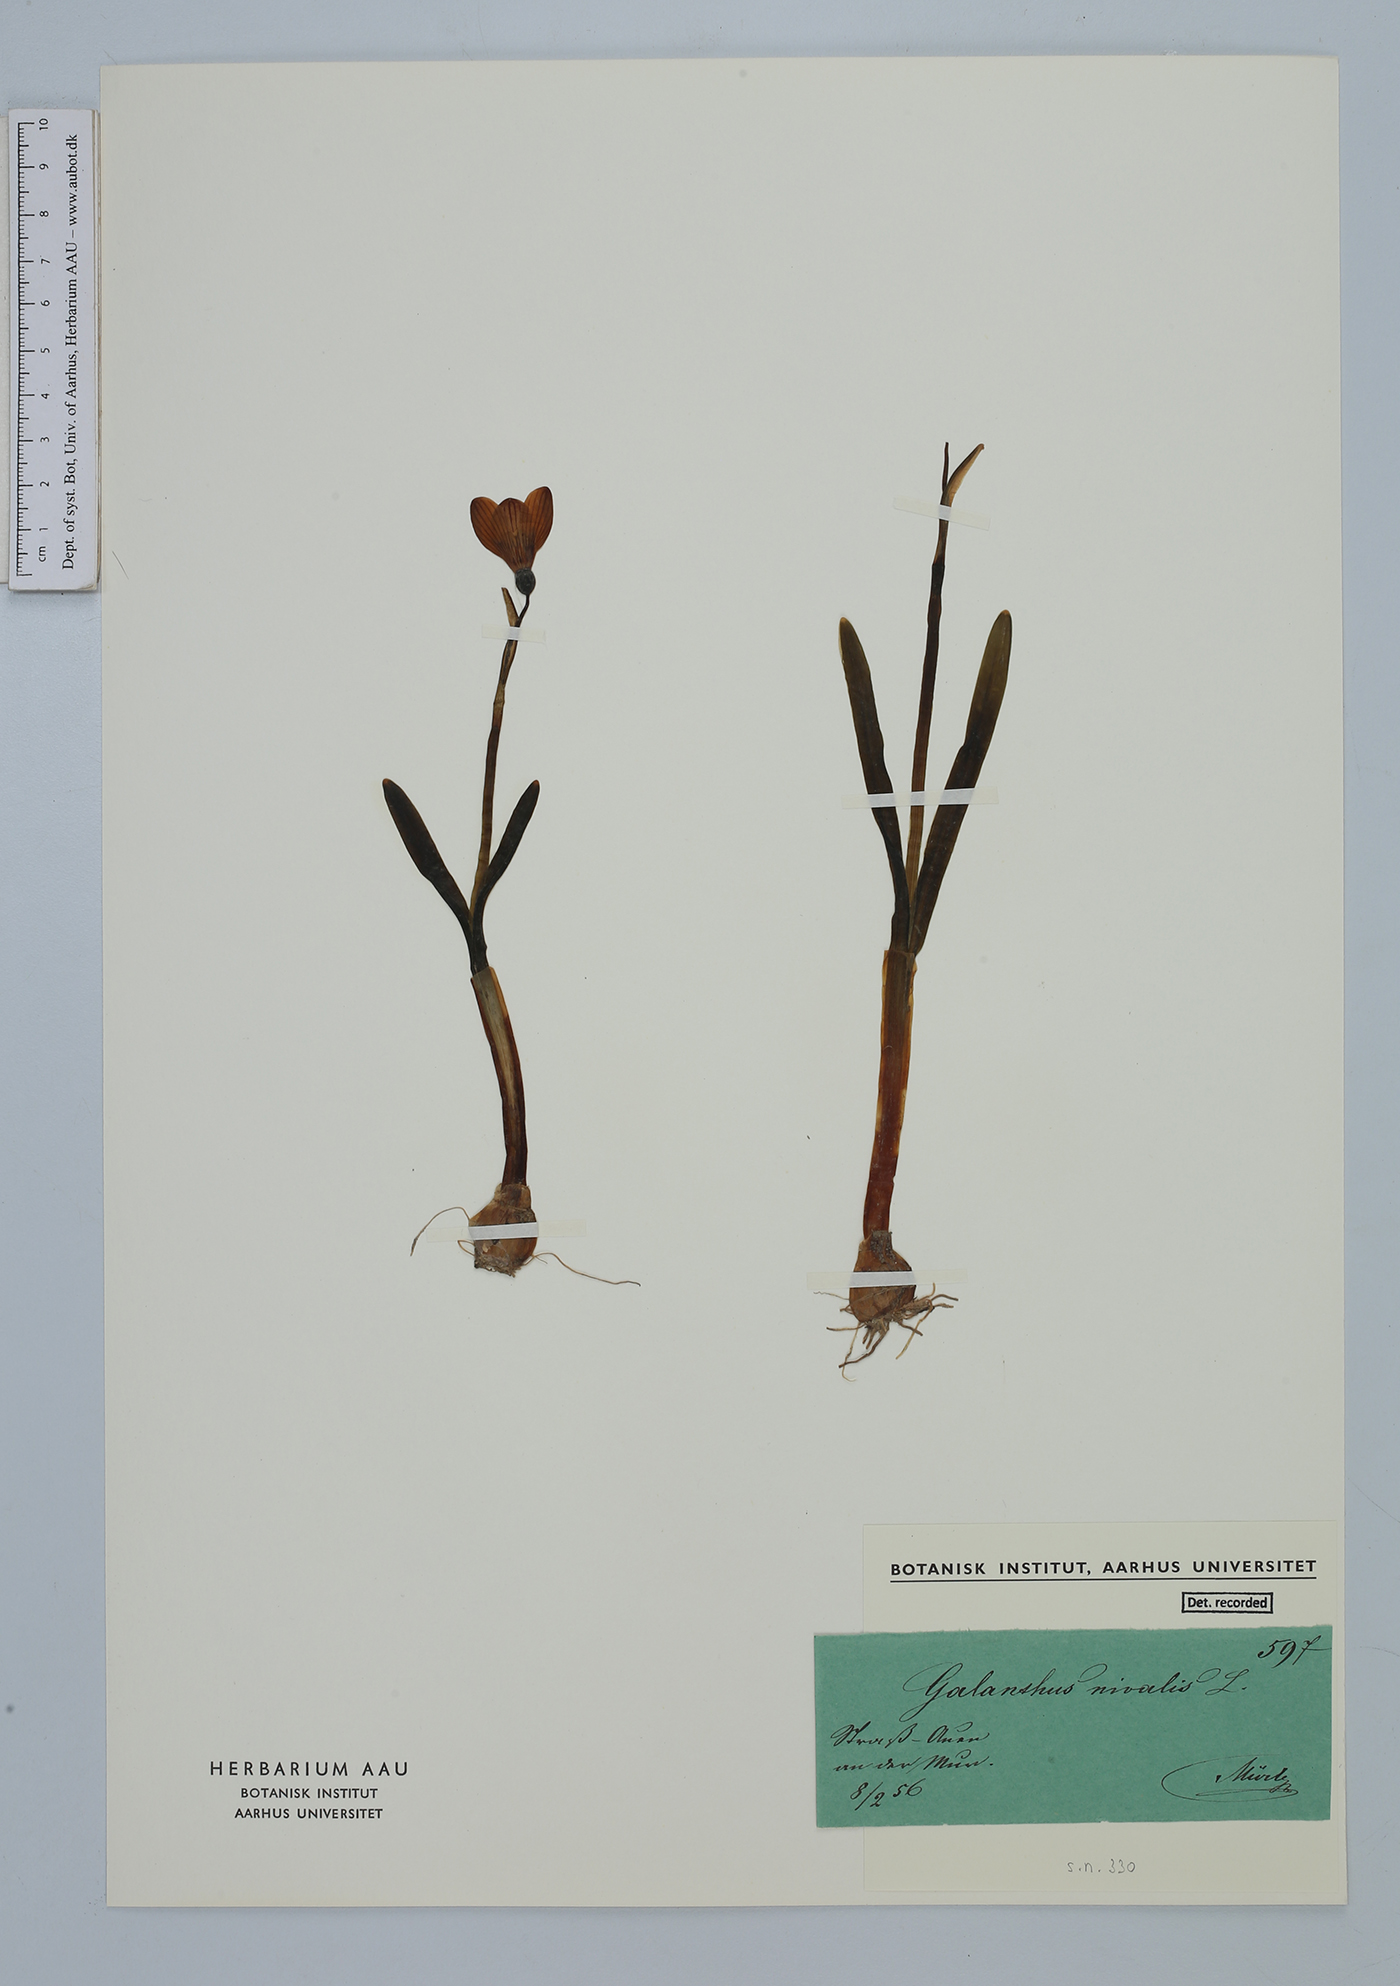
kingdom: Plantae
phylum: Tracheophyta
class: Liliopsida
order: Asparagales
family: Amaryllidaceae
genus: Galanthus
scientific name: Galanthus nivalis
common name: Snowdrop
